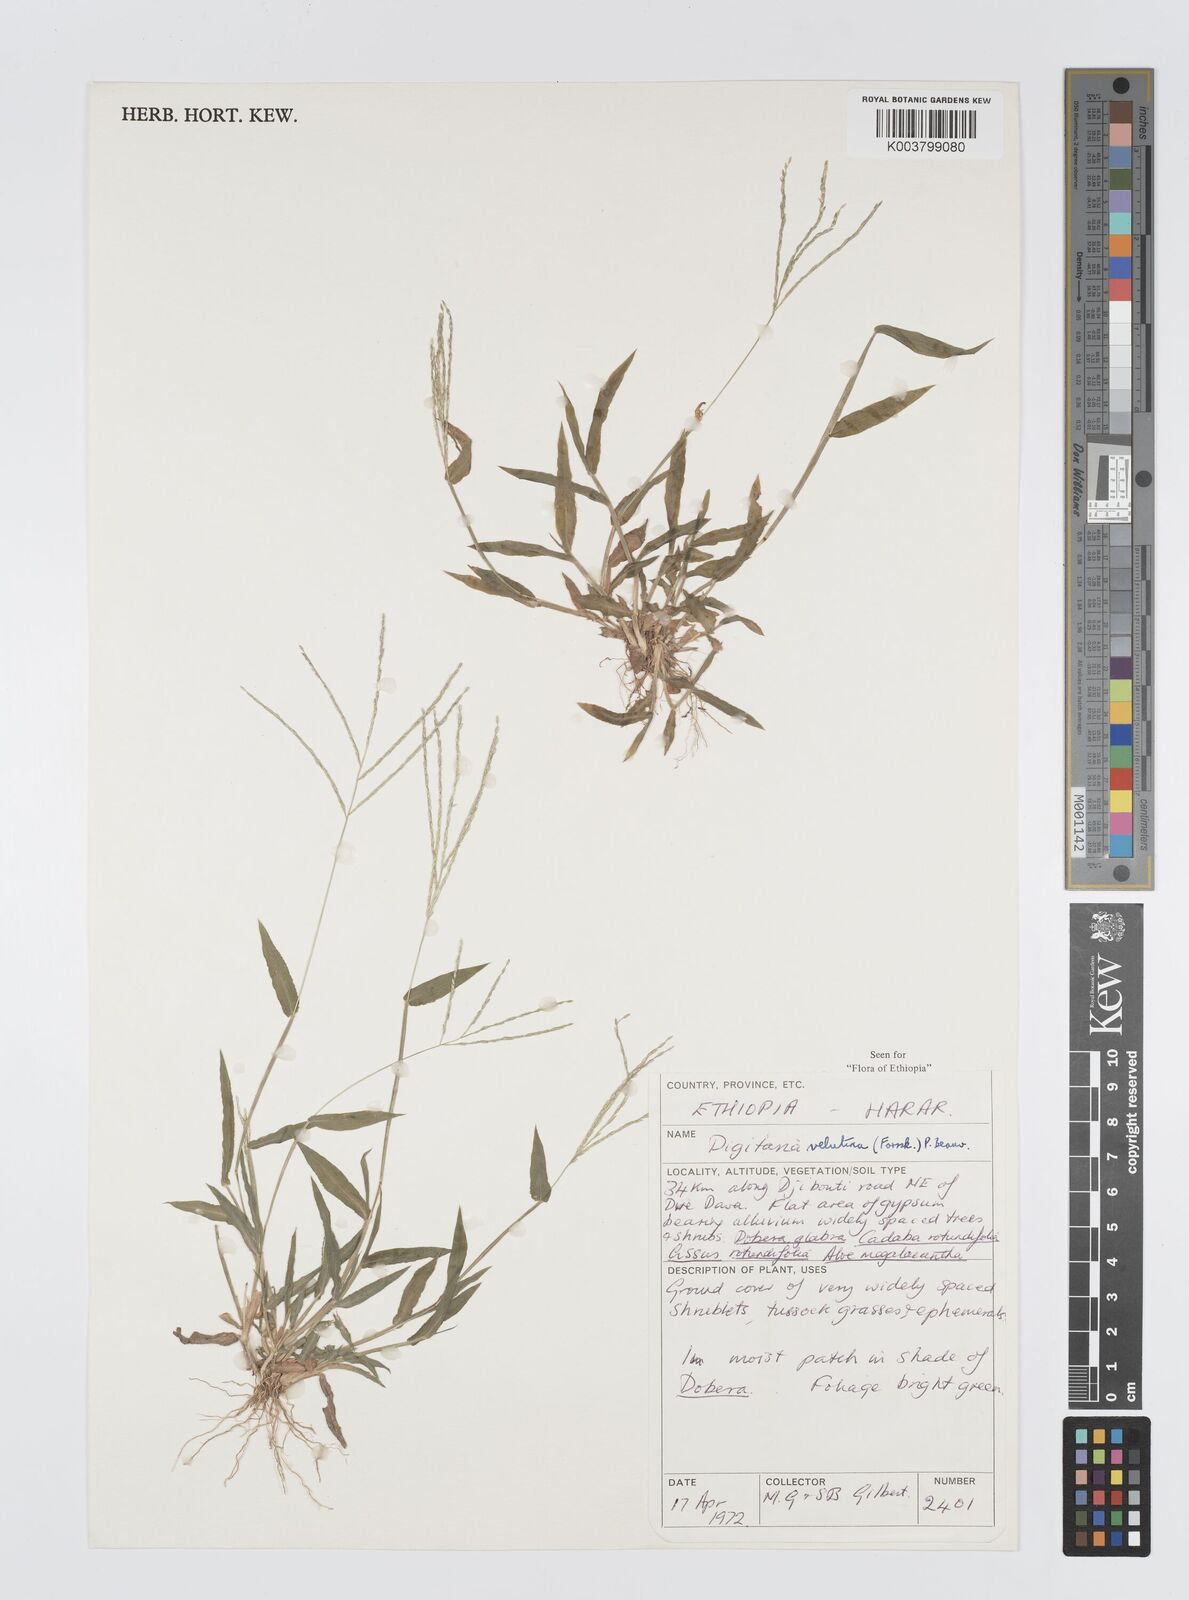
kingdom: Plantae
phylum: Tracheophyta
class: Liliopsida
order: Poales
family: Poaceae
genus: Digitaria
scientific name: Digitaria velutina
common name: Long-plume finger grass
